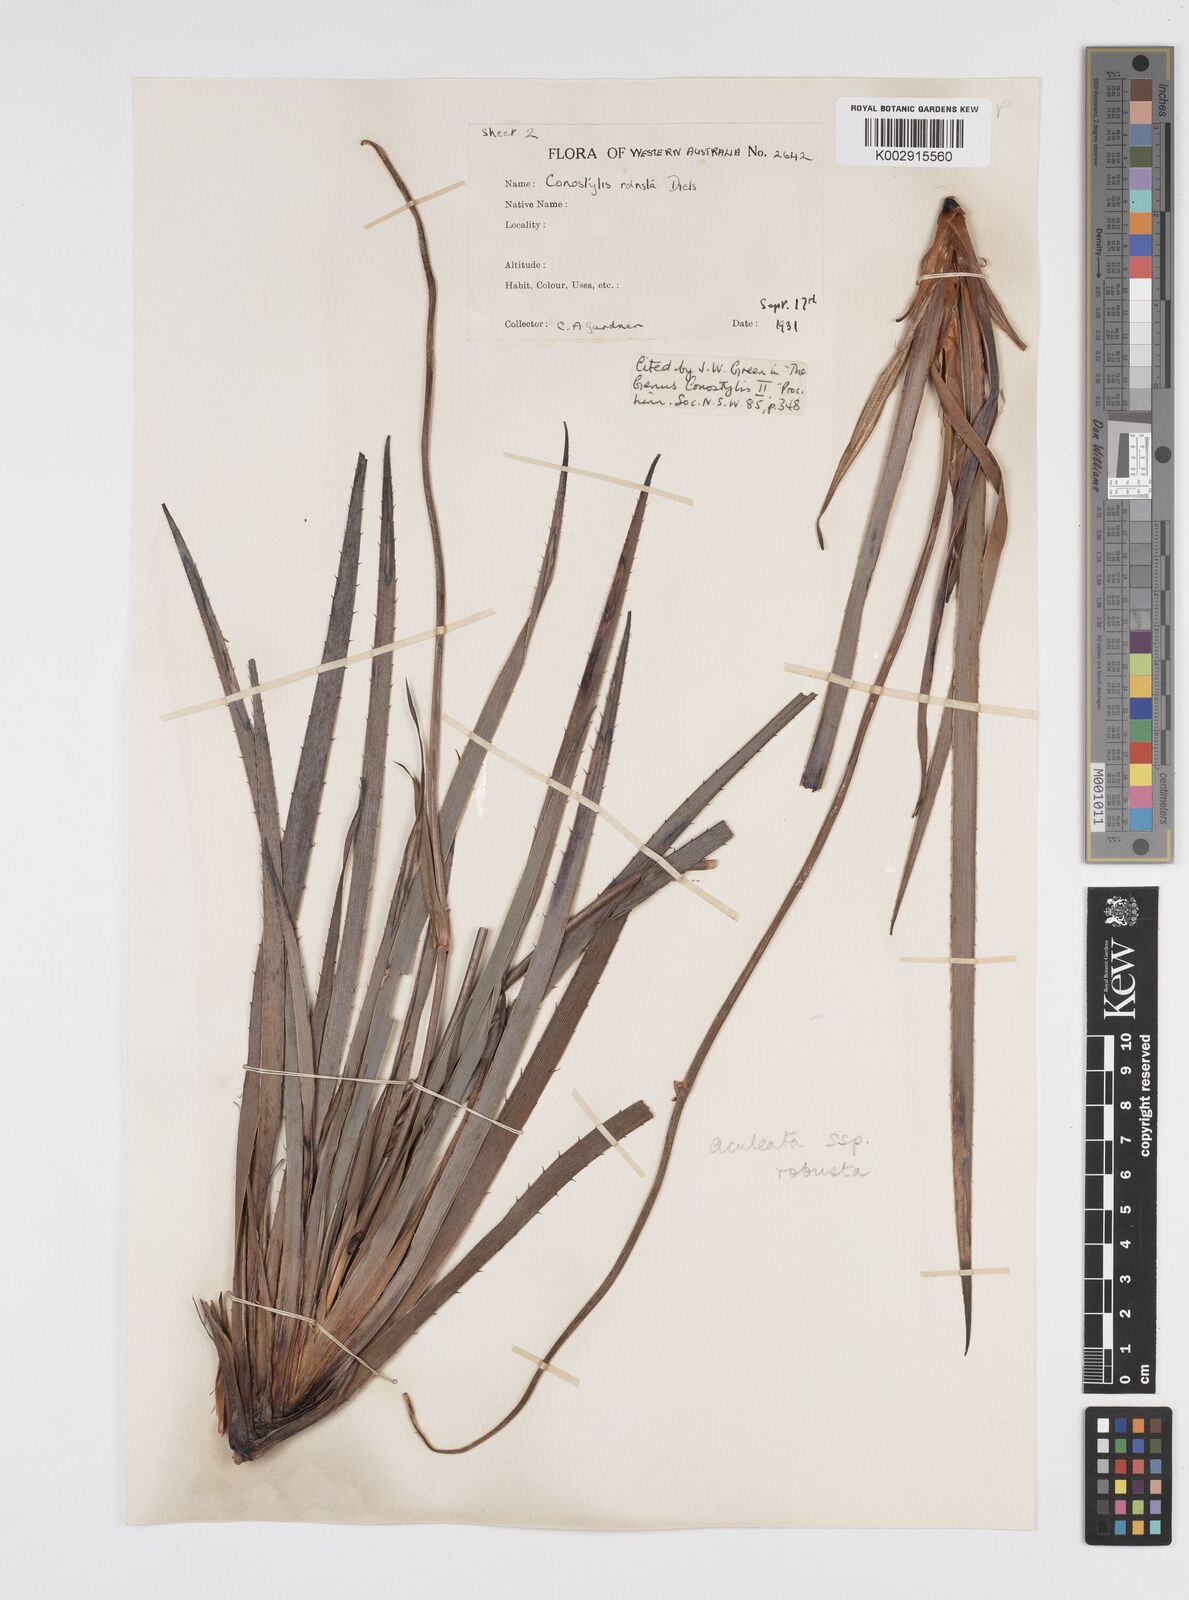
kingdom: Plantae
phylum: Tracheophyta
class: Liliopsida
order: Commelinales
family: Haemodoraceae
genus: Conostylis
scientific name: Conostylis robusta
